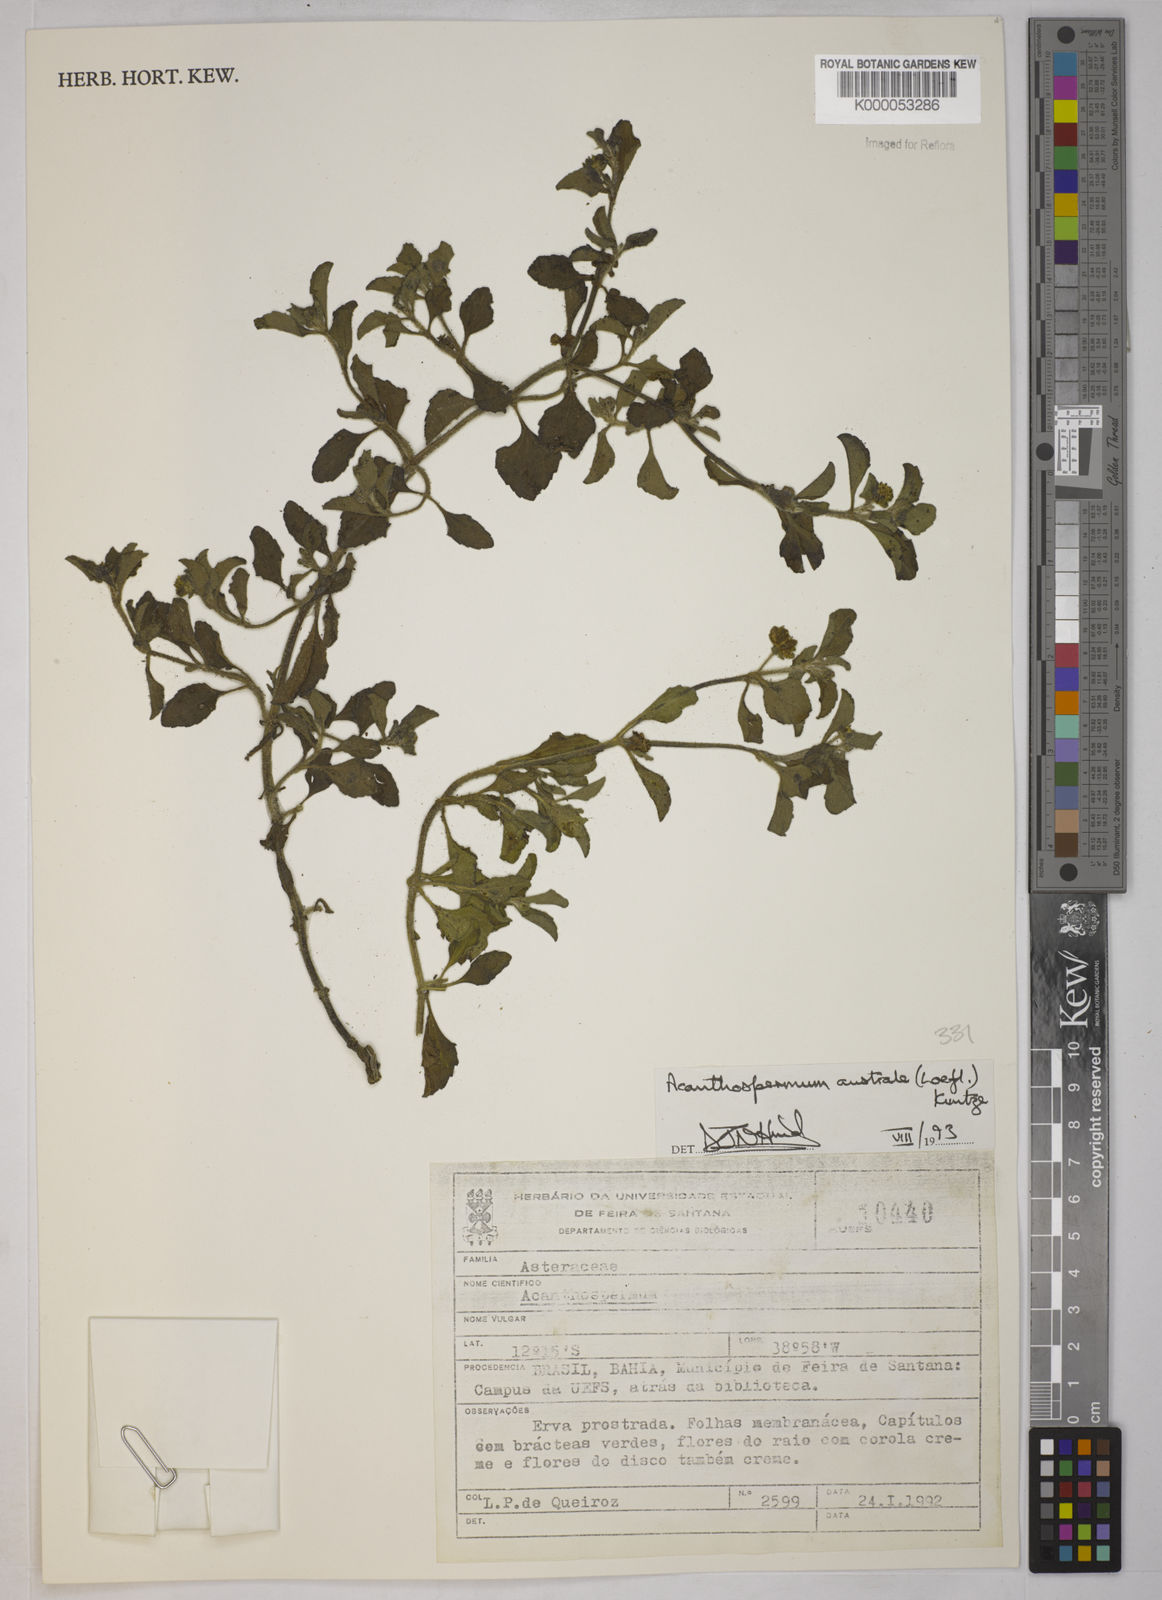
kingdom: Plantae
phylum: Tracheophyta
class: Magnoliopsida
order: Asterales
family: Asteraceae
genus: Acanthospermum
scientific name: Acanthospermum australe
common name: Paraguayan starbur
